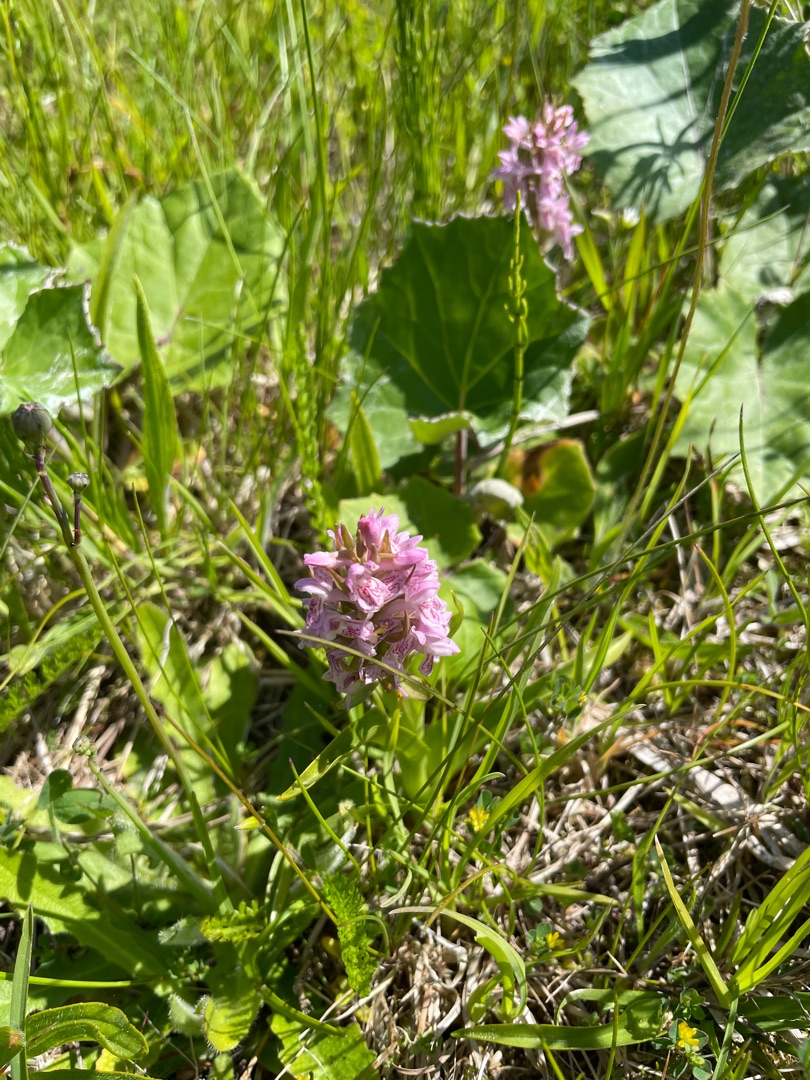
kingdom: Plantae
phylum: Tracheophyta
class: Liliopsida
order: Asparagales
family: Orchidaceae
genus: Dactylorhiza
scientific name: Dactylorhiza incarnata
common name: Kødfarvet gøgeurt
